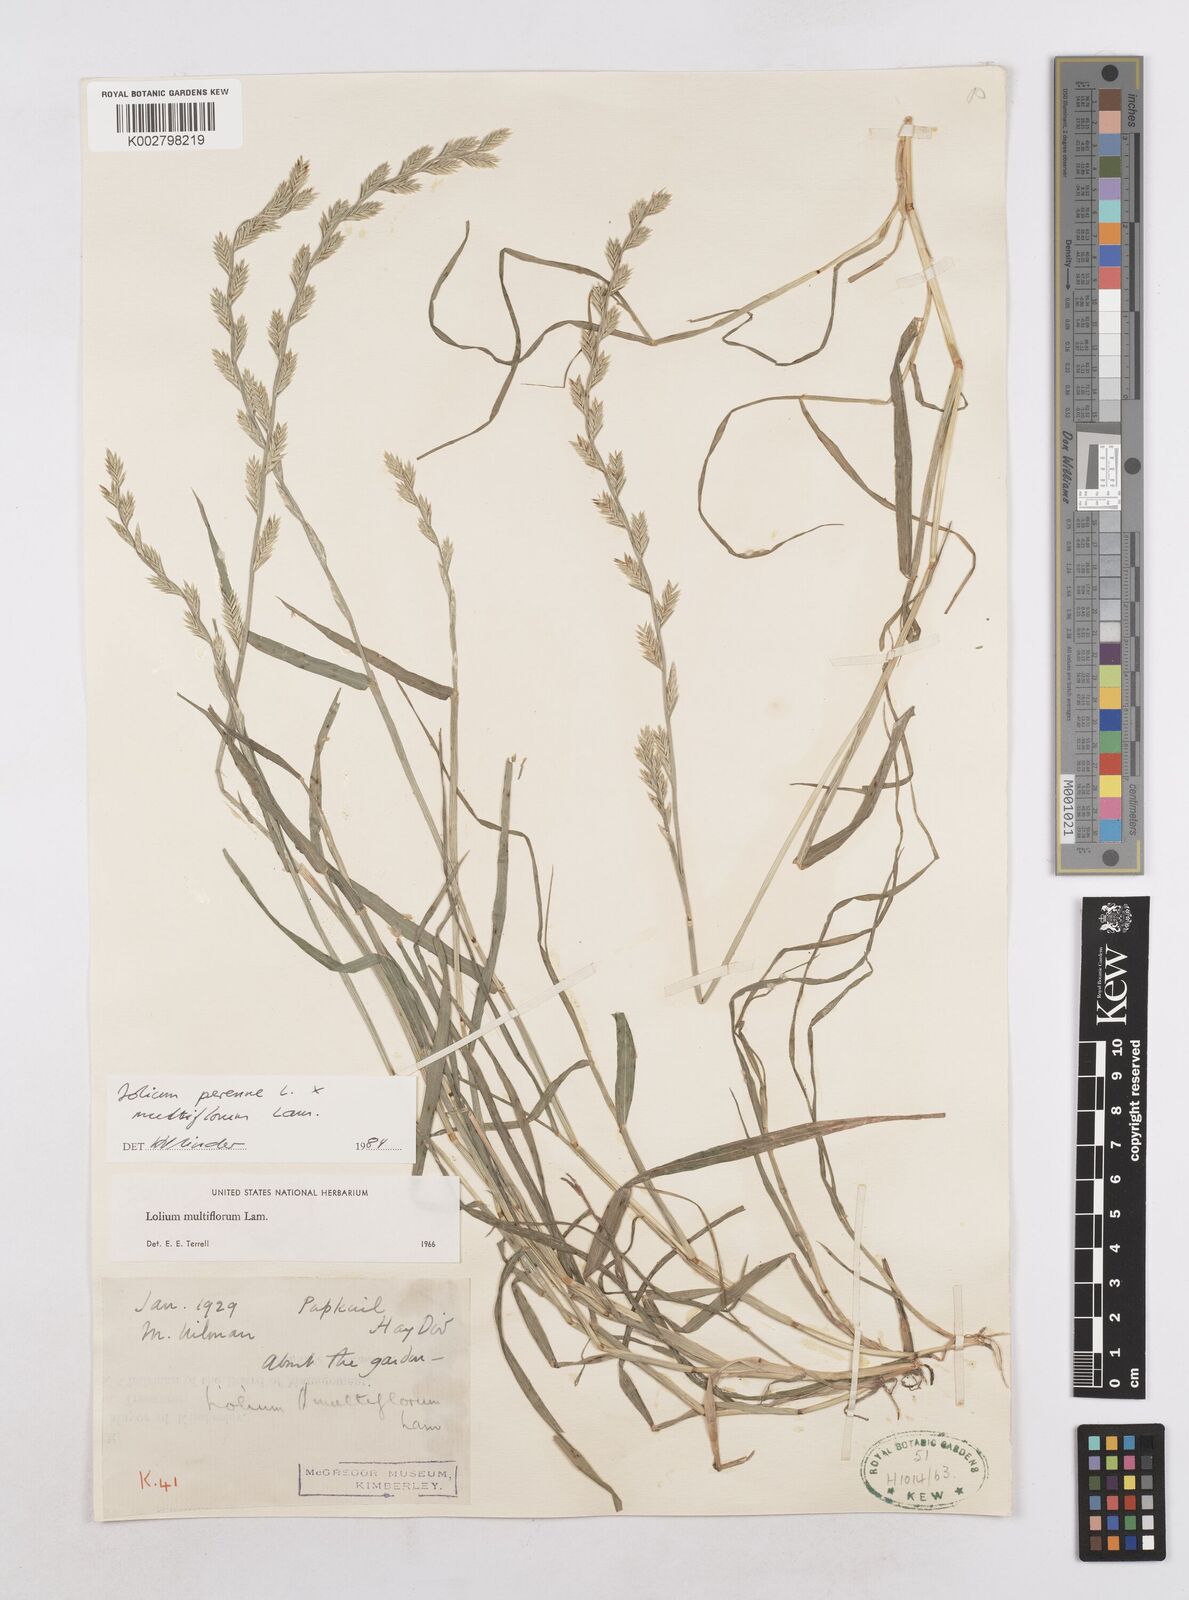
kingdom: Plantae
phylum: Tracheophyta
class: Liliopsida
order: Poales
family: Poaceae
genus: Lolium
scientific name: Lolium multiflorum
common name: Annual ryegrass
